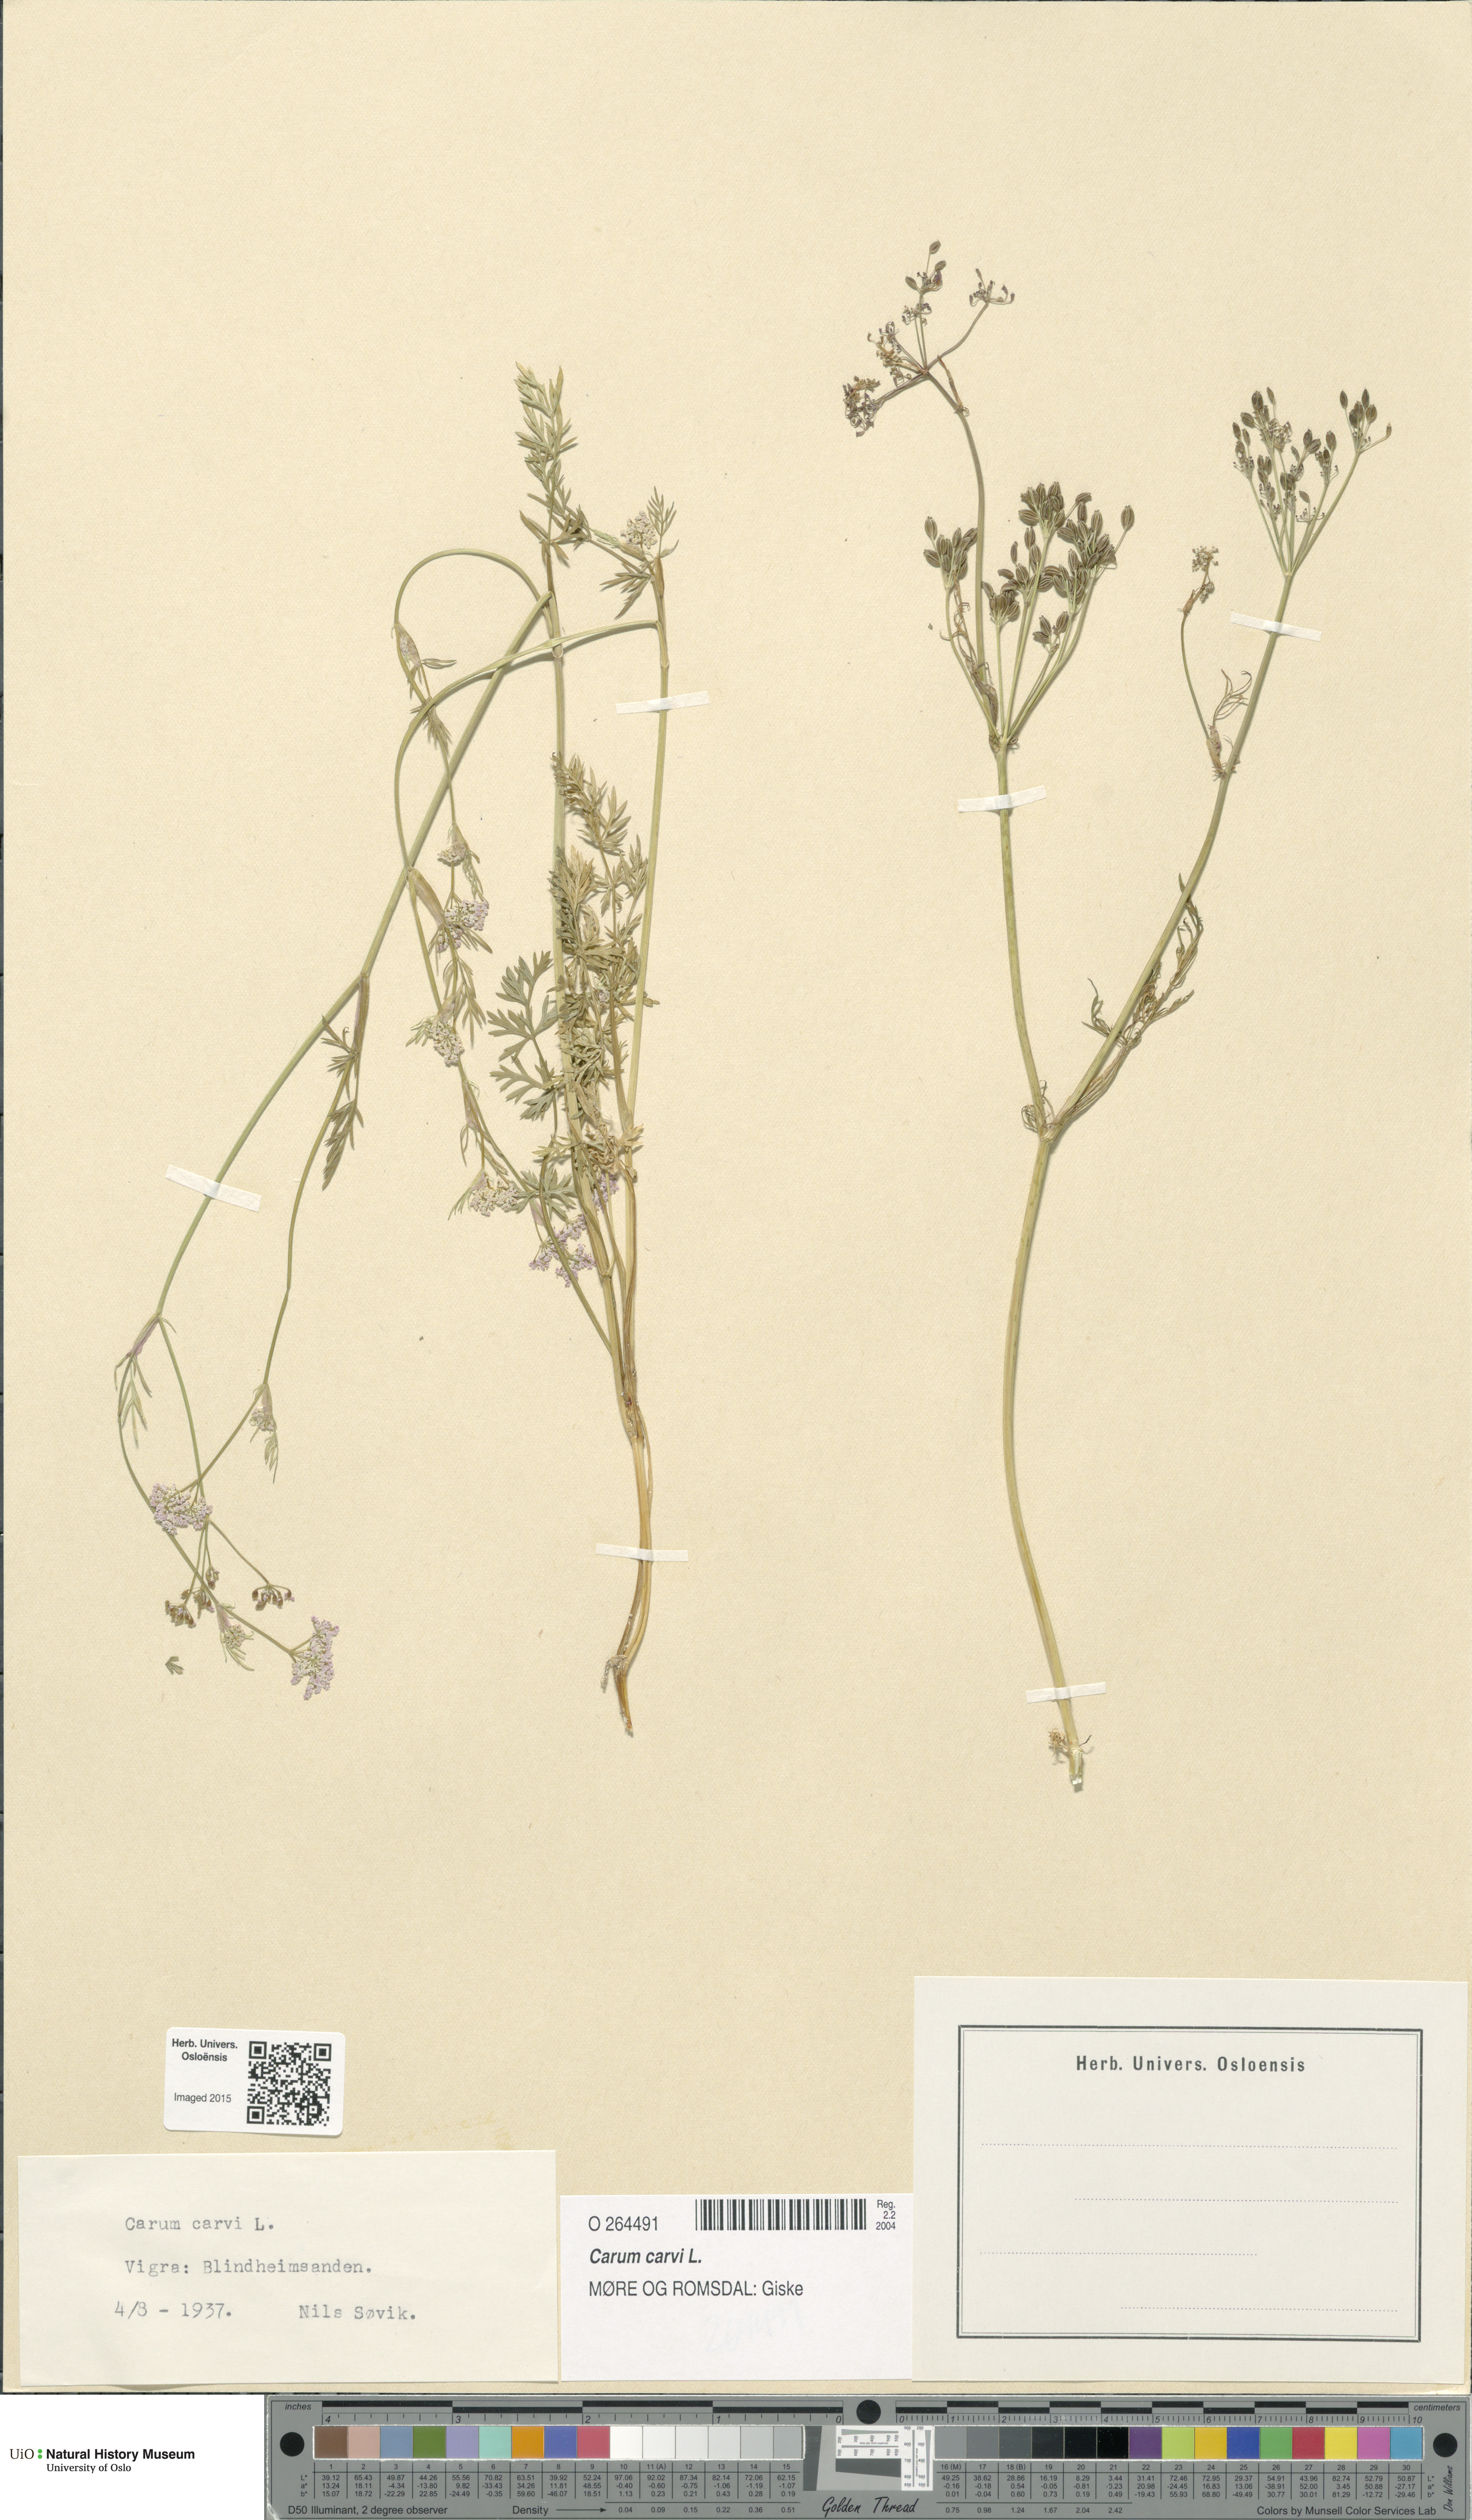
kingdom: Plantae
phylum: Tracheophyta
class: Magnoliopsida
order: Apiales
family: Apiaceae
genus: Carum
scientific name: Carum carvi
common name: Caraway
